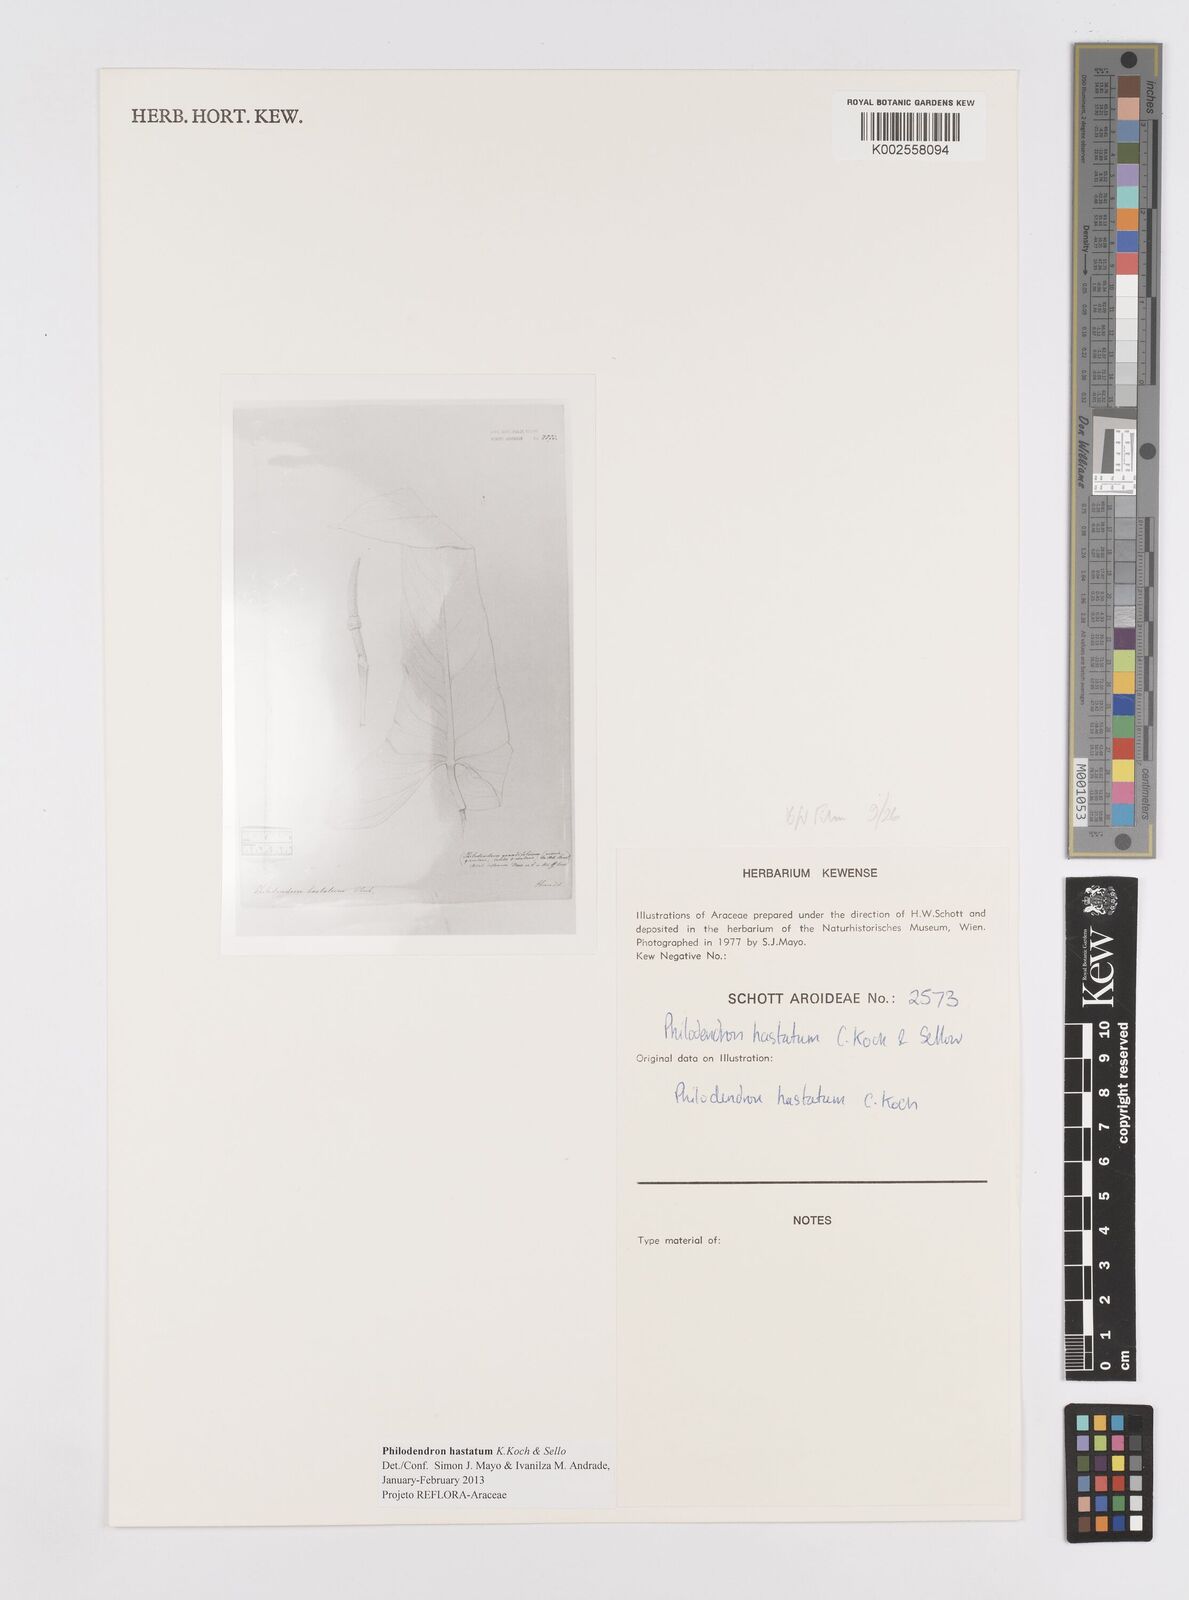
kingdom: Plantae
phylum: Tracheophyta
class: Liliopsida
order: Alismatales
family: Araceae
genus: Philodendron
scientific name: Philodendron hastatum
